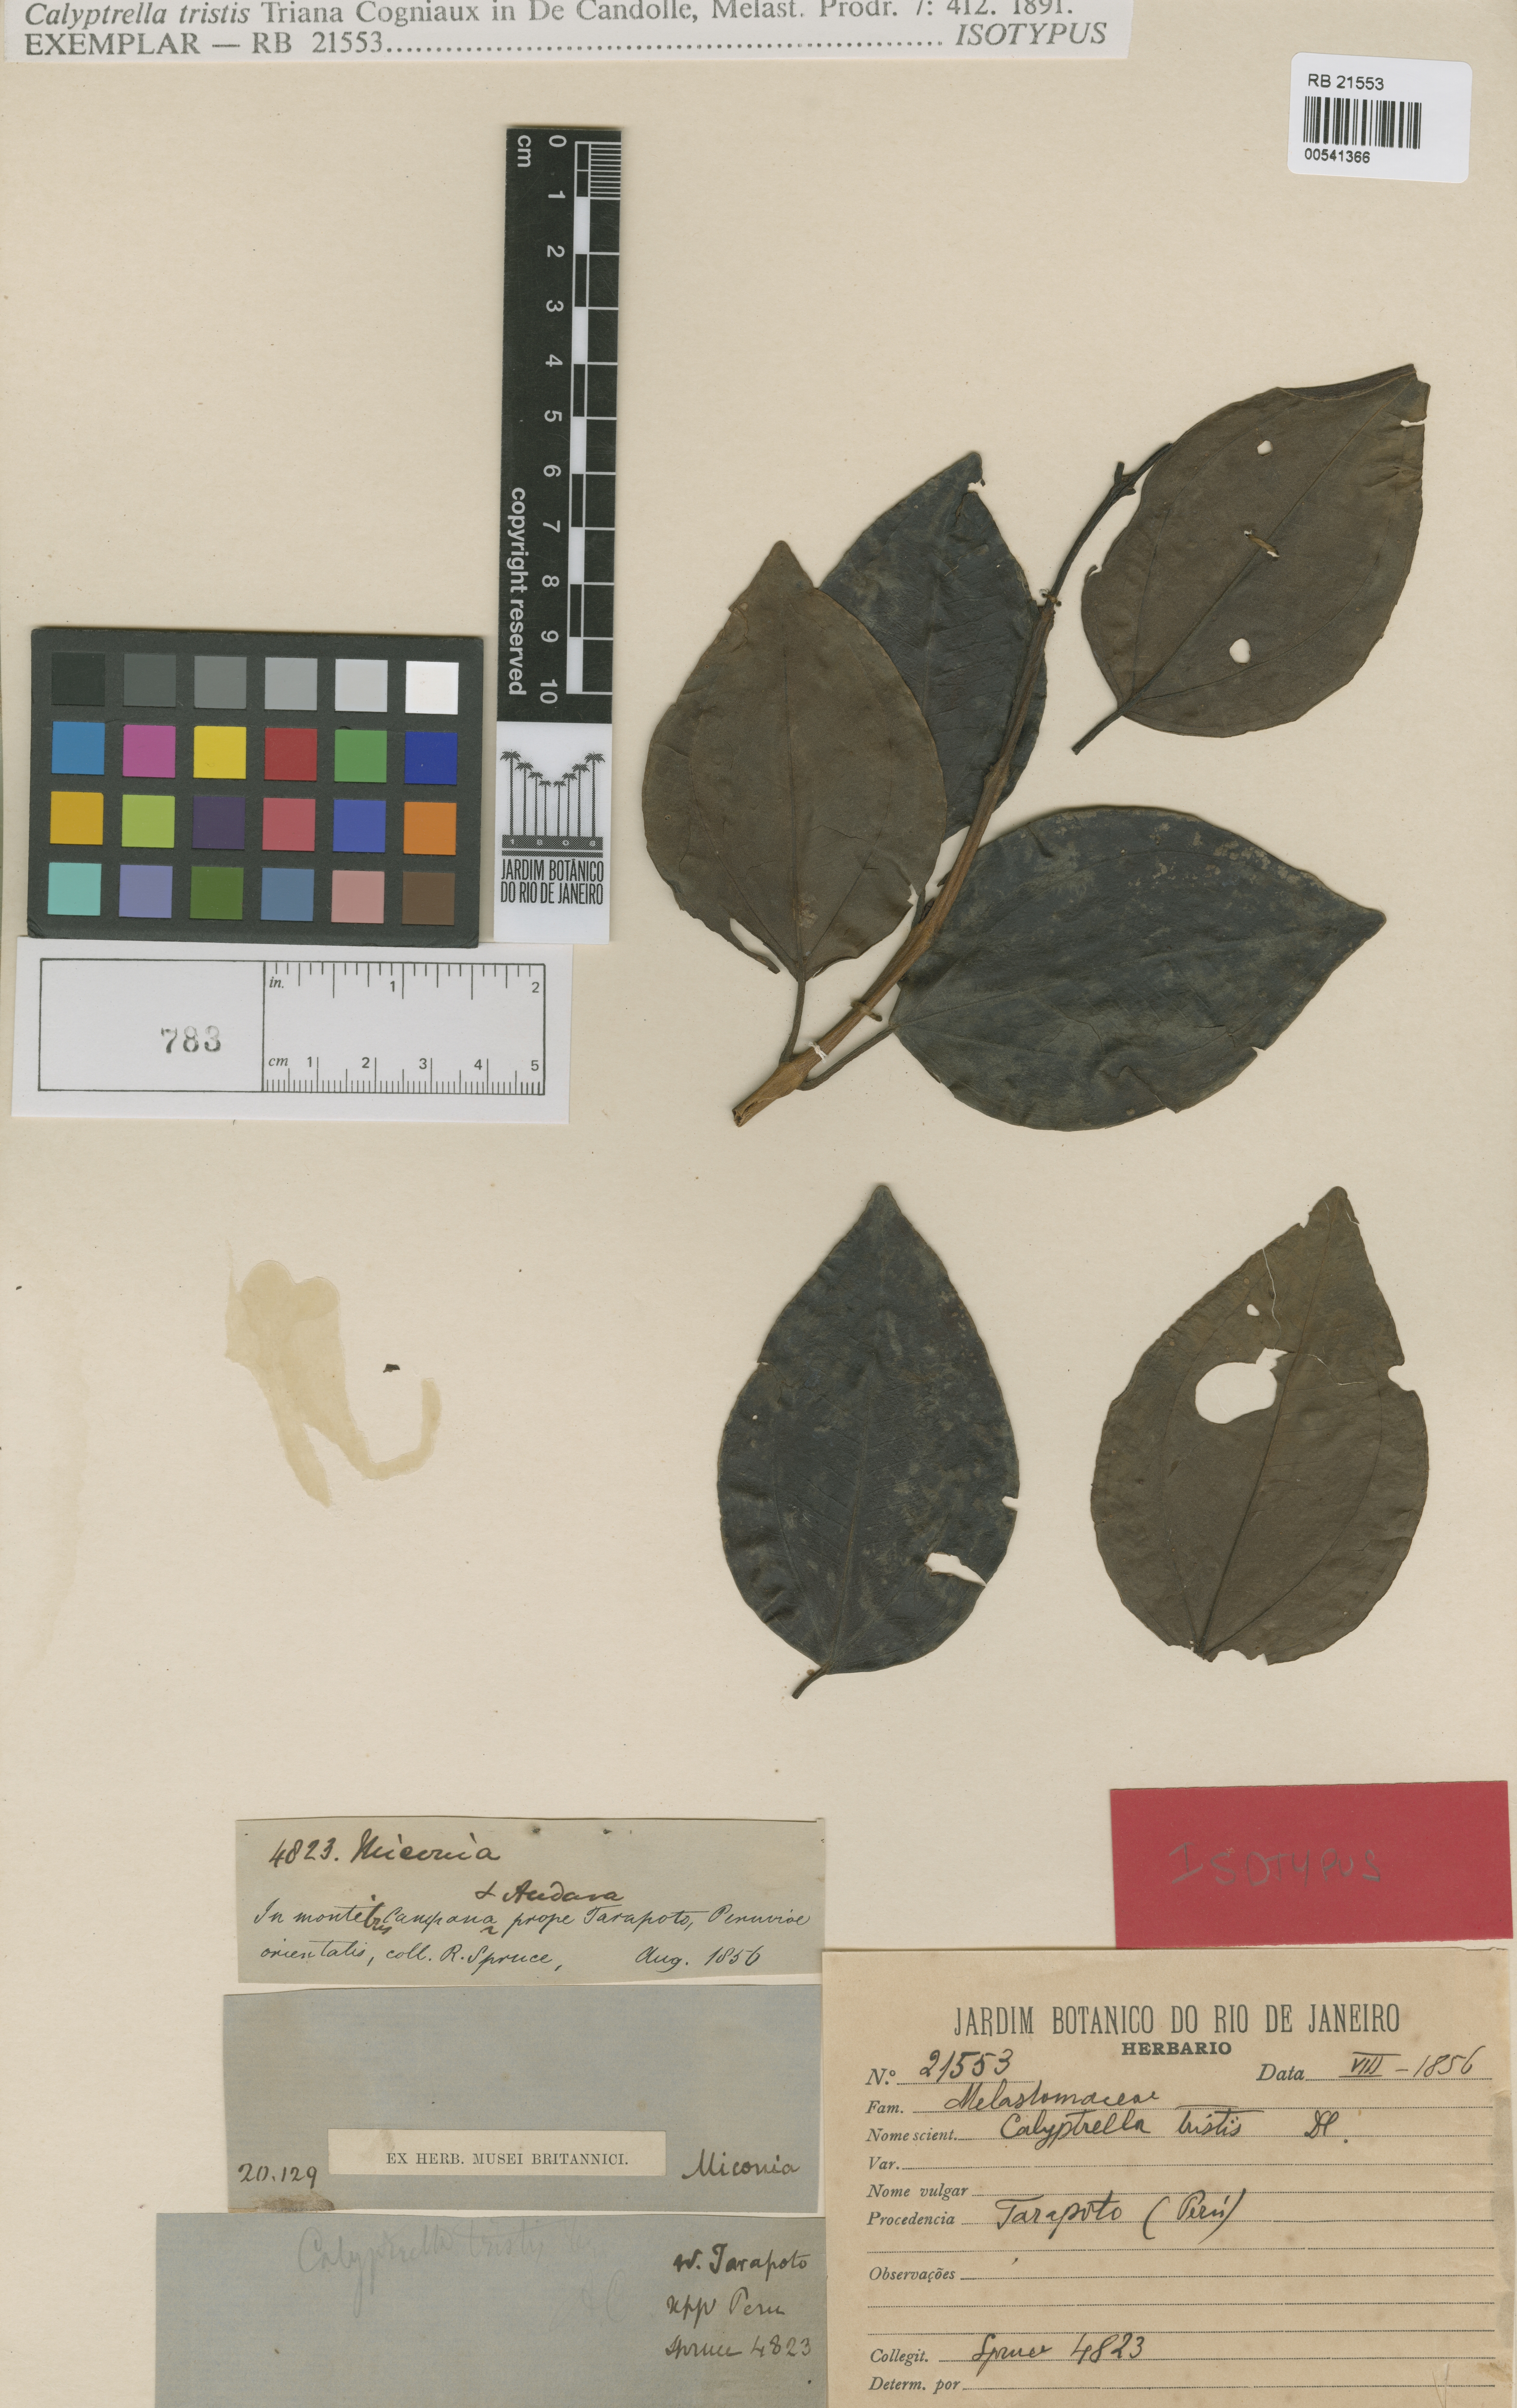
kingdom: Plantae
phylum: Tracheophyta
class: Magnoliopsida
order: Myrtales
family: Melastomataceae
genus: Graffenrieda
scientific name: Graffenrieda tristis
